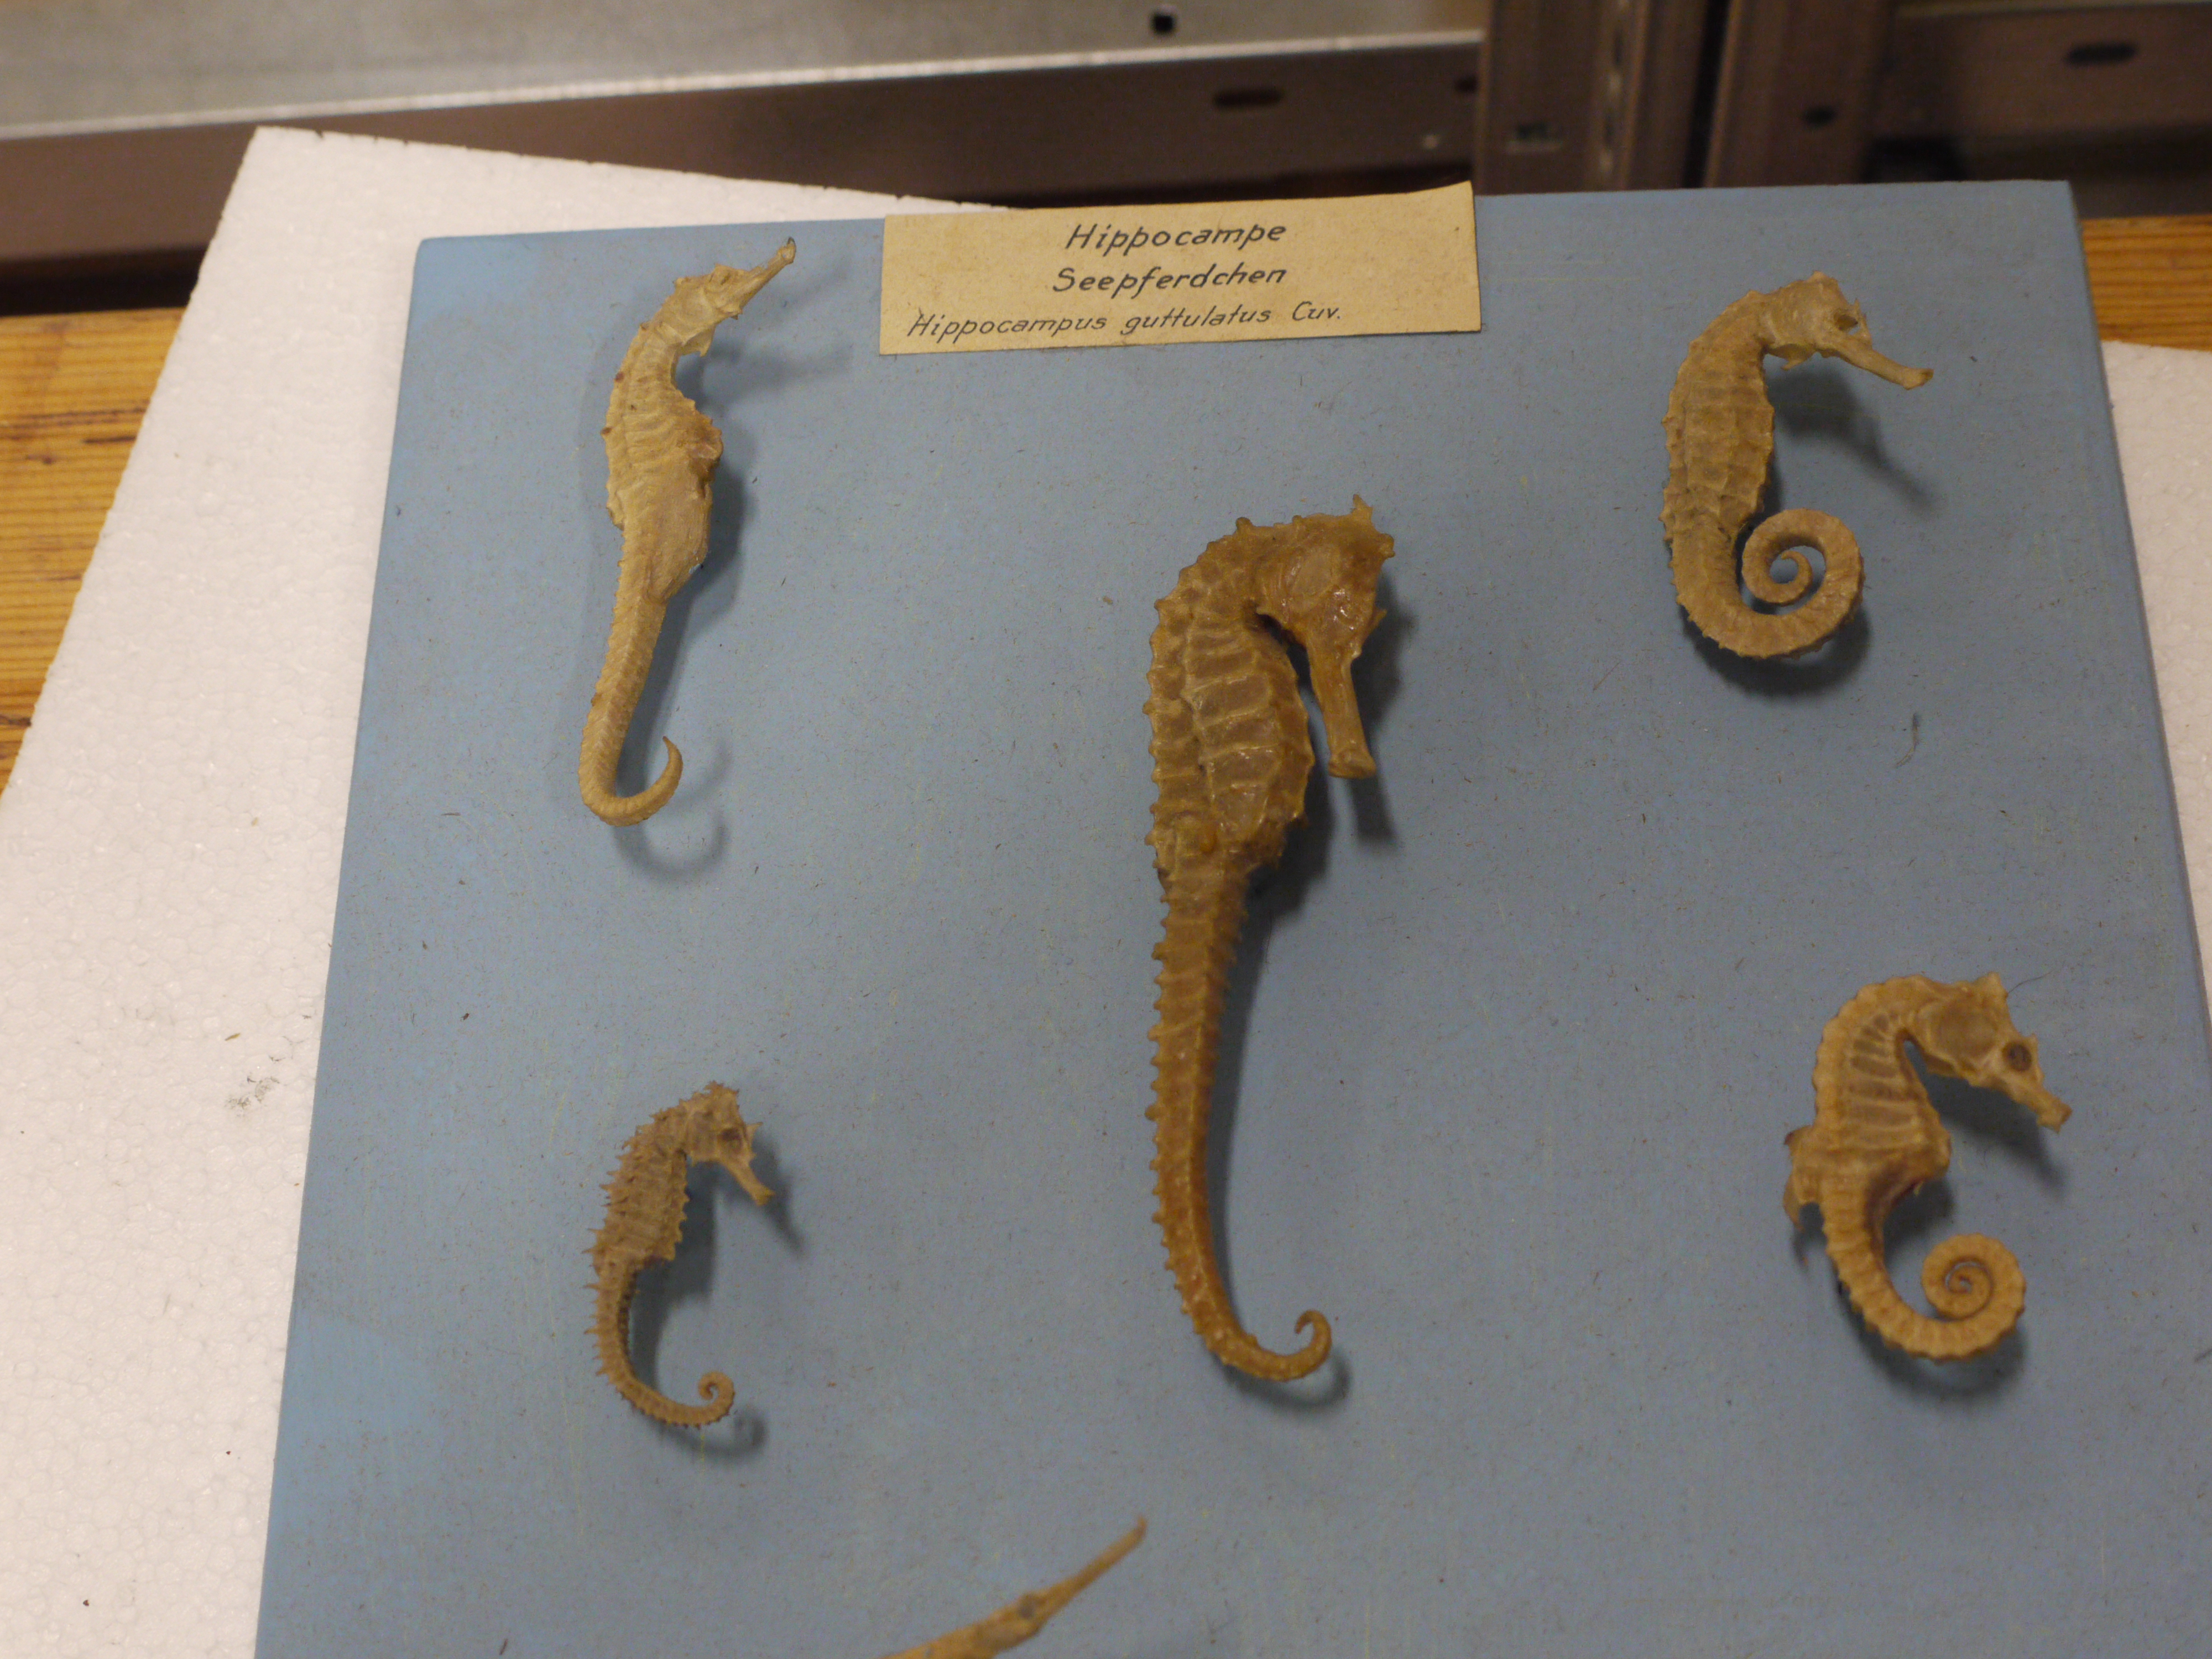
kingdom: Animalia
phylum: Chordata
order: Syngnathiformes
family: Syngnathidae
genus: Hippocampus
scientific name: Hippocampus guttulatus
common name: Long-snouted seahorse
